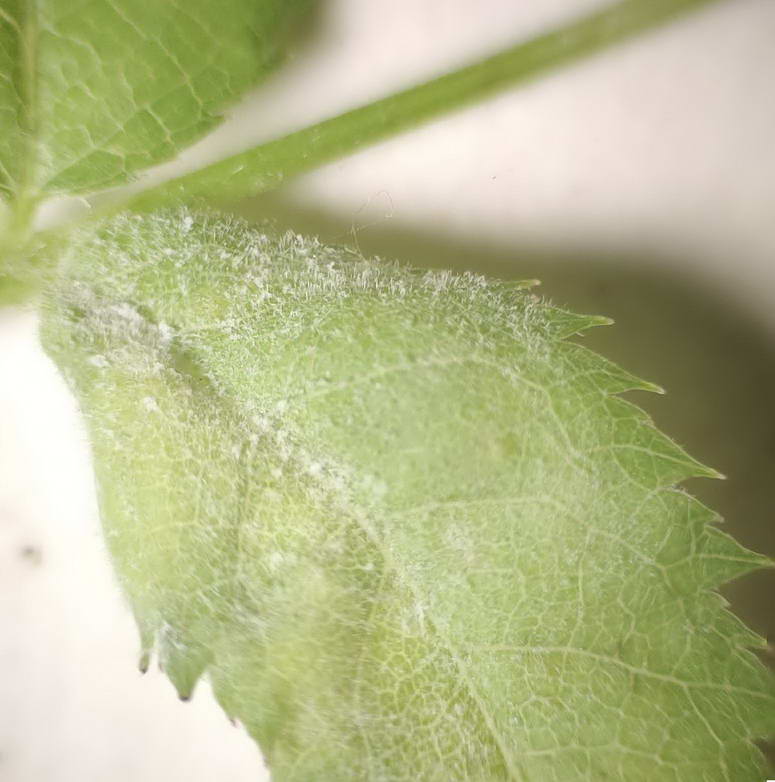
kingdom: Fungi
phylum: Ascomycota
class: Leotiomycetes
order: Helotiales
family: Erysiphaceae
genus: Podosphaera
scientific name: Podosphaera clandestina
